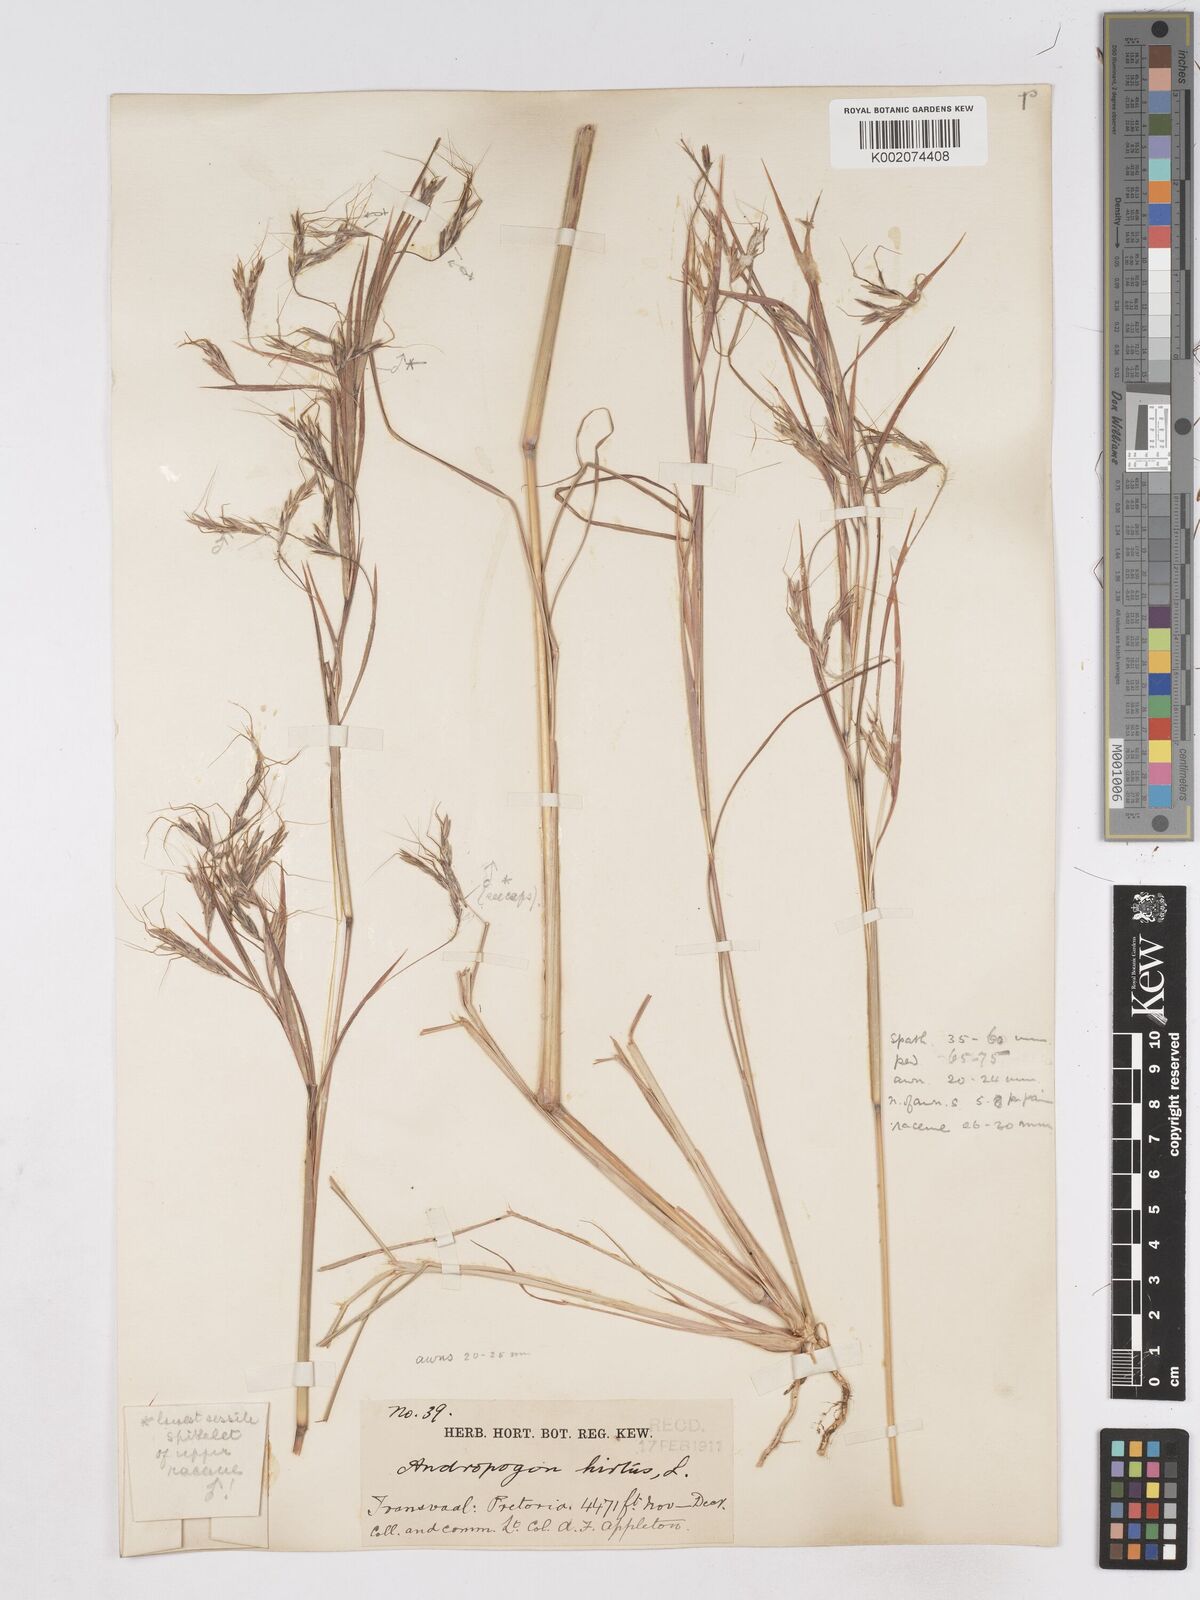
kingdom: Plantae
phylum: Tracheophyta
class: Liliopsida
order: Poales
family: Poaceae
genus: Hyparrhenia
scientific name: Hyparrhenia hirta
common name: Thatching grass
